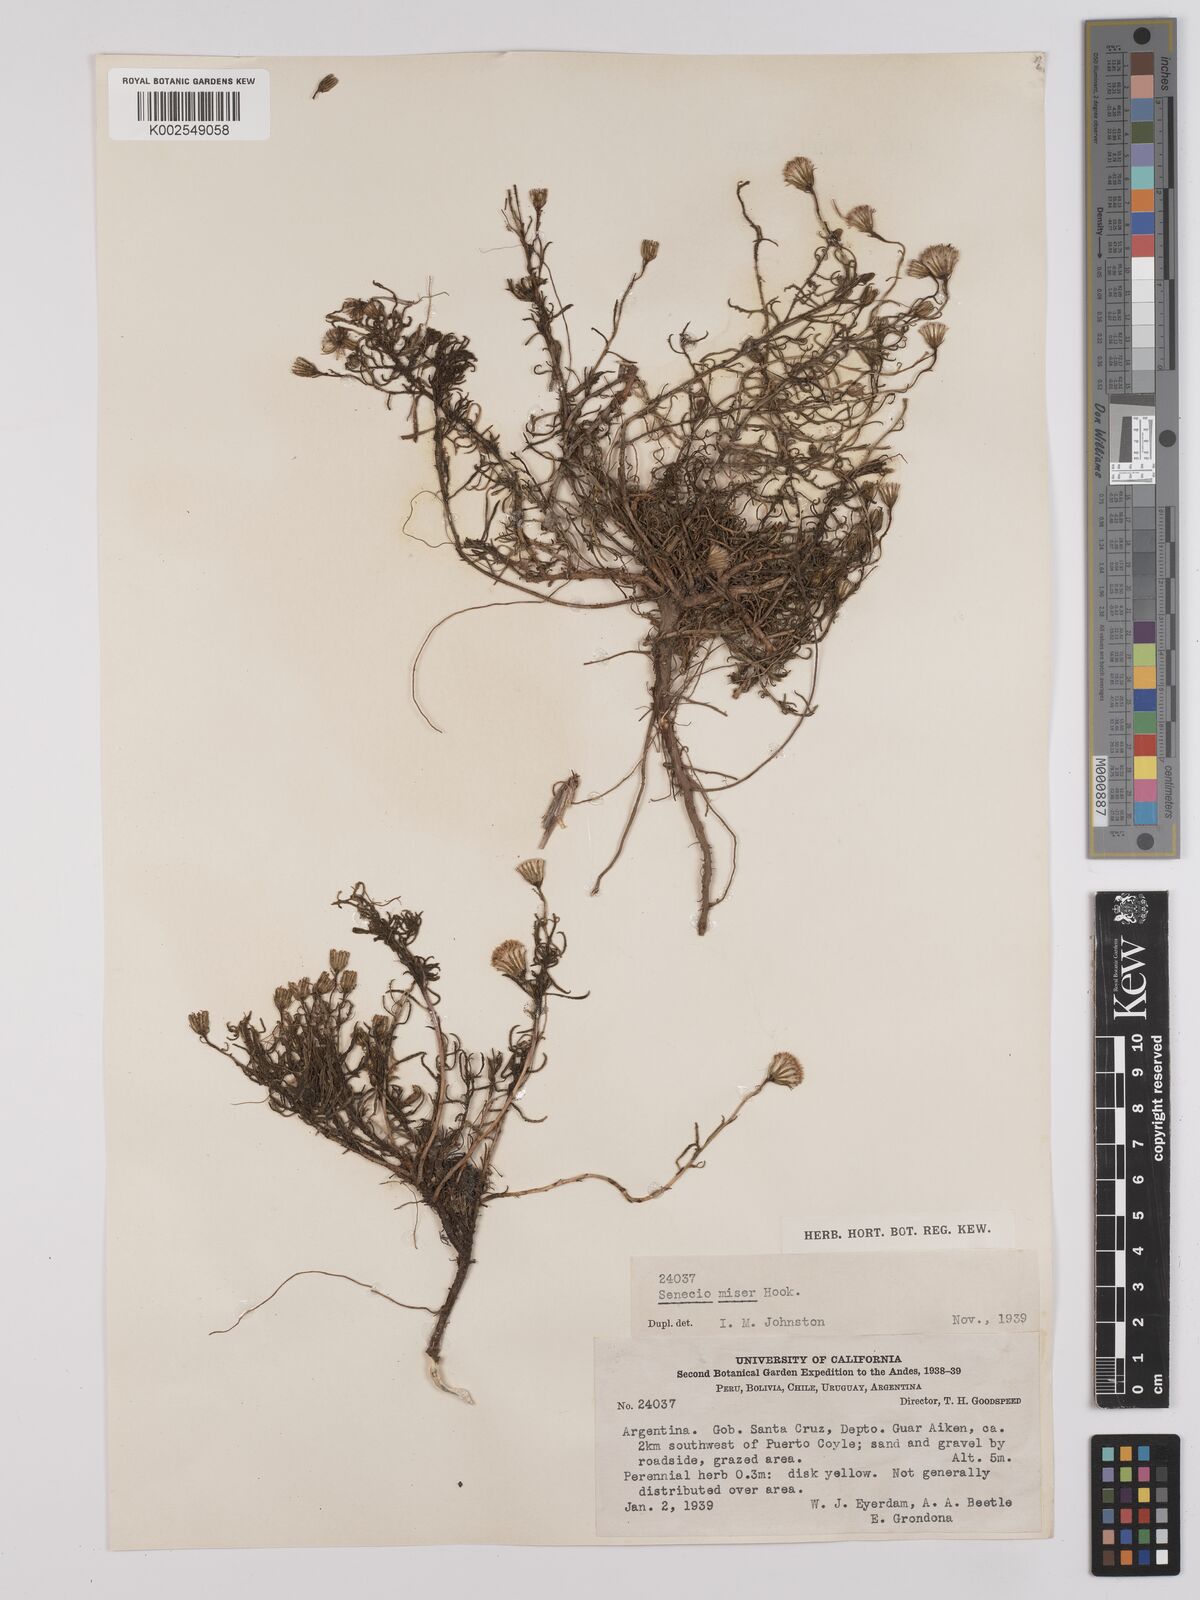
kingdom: Plantae
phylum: Tracheophyta
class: Magnoliopsida
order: Asterales
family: Asteraceae
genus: Senecio
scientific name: Senecio miser
